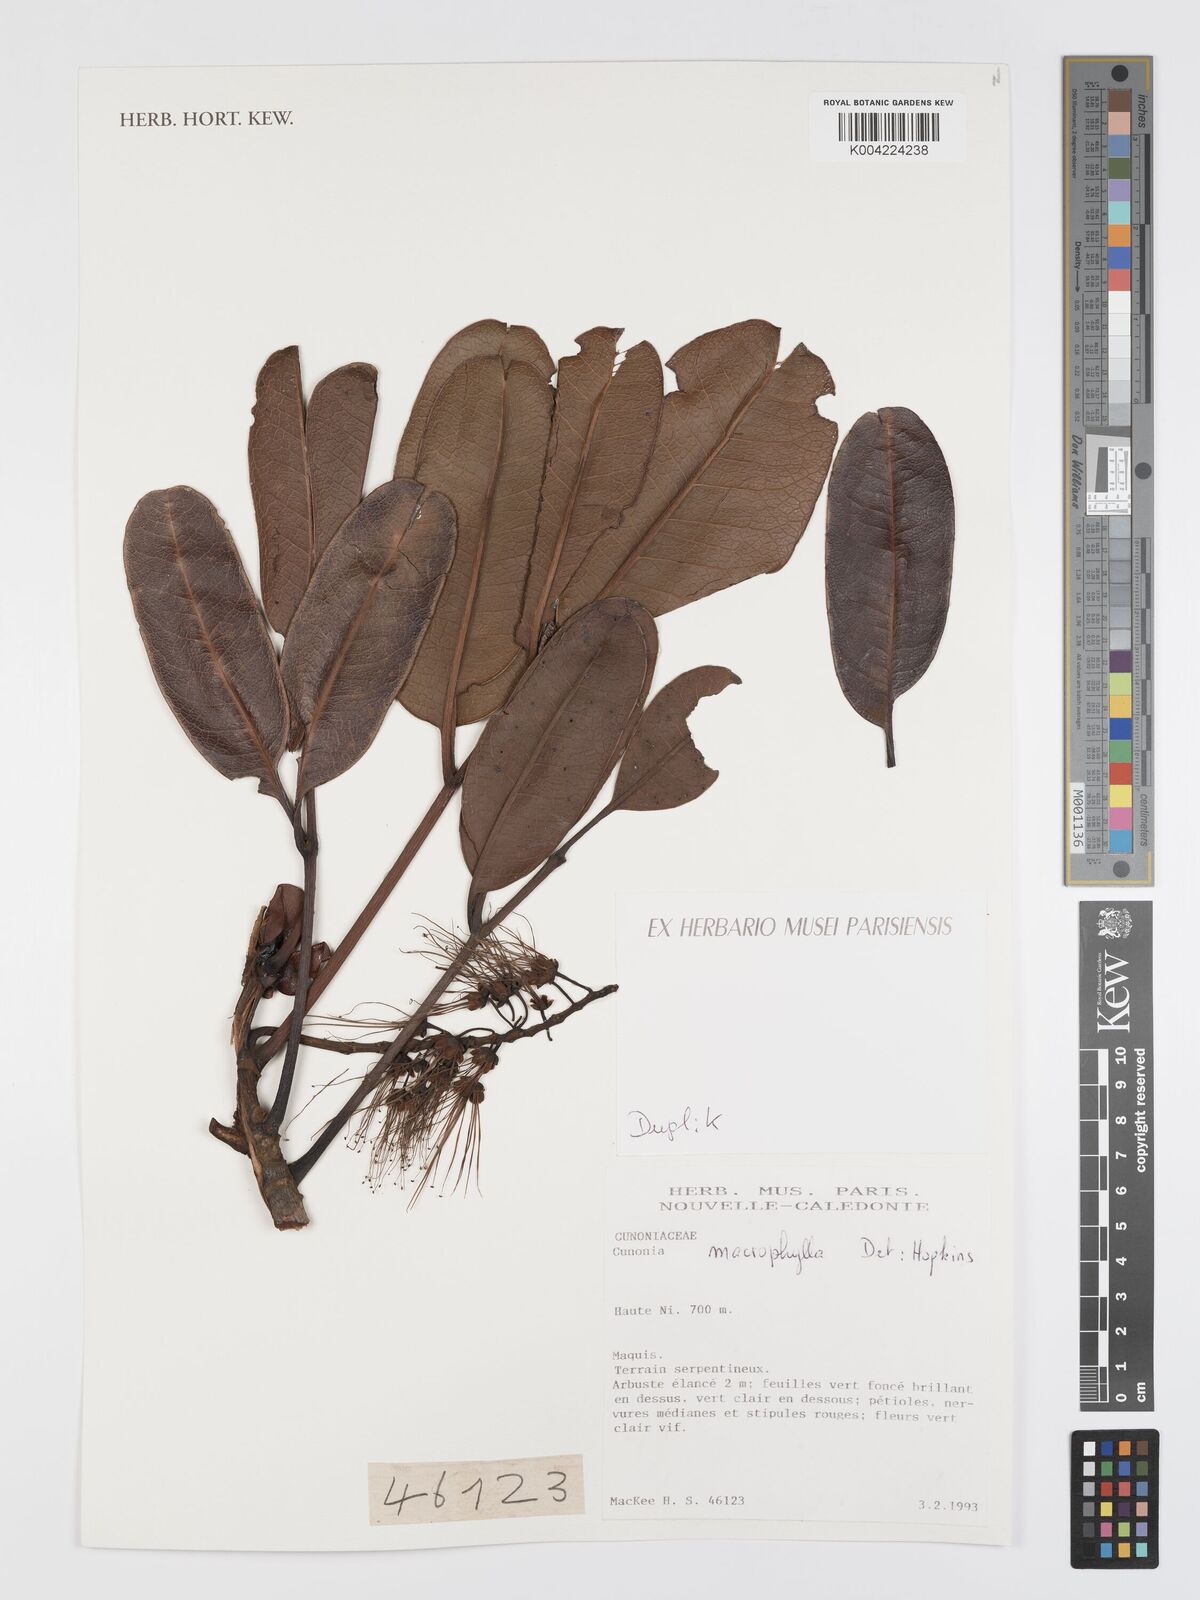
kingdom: Plantae
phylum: Tracheophyta
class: Magnoliopsida
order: Oxalidales
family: Cunoniaceae
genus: Cunonia
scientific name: Cunonia macrophylla
